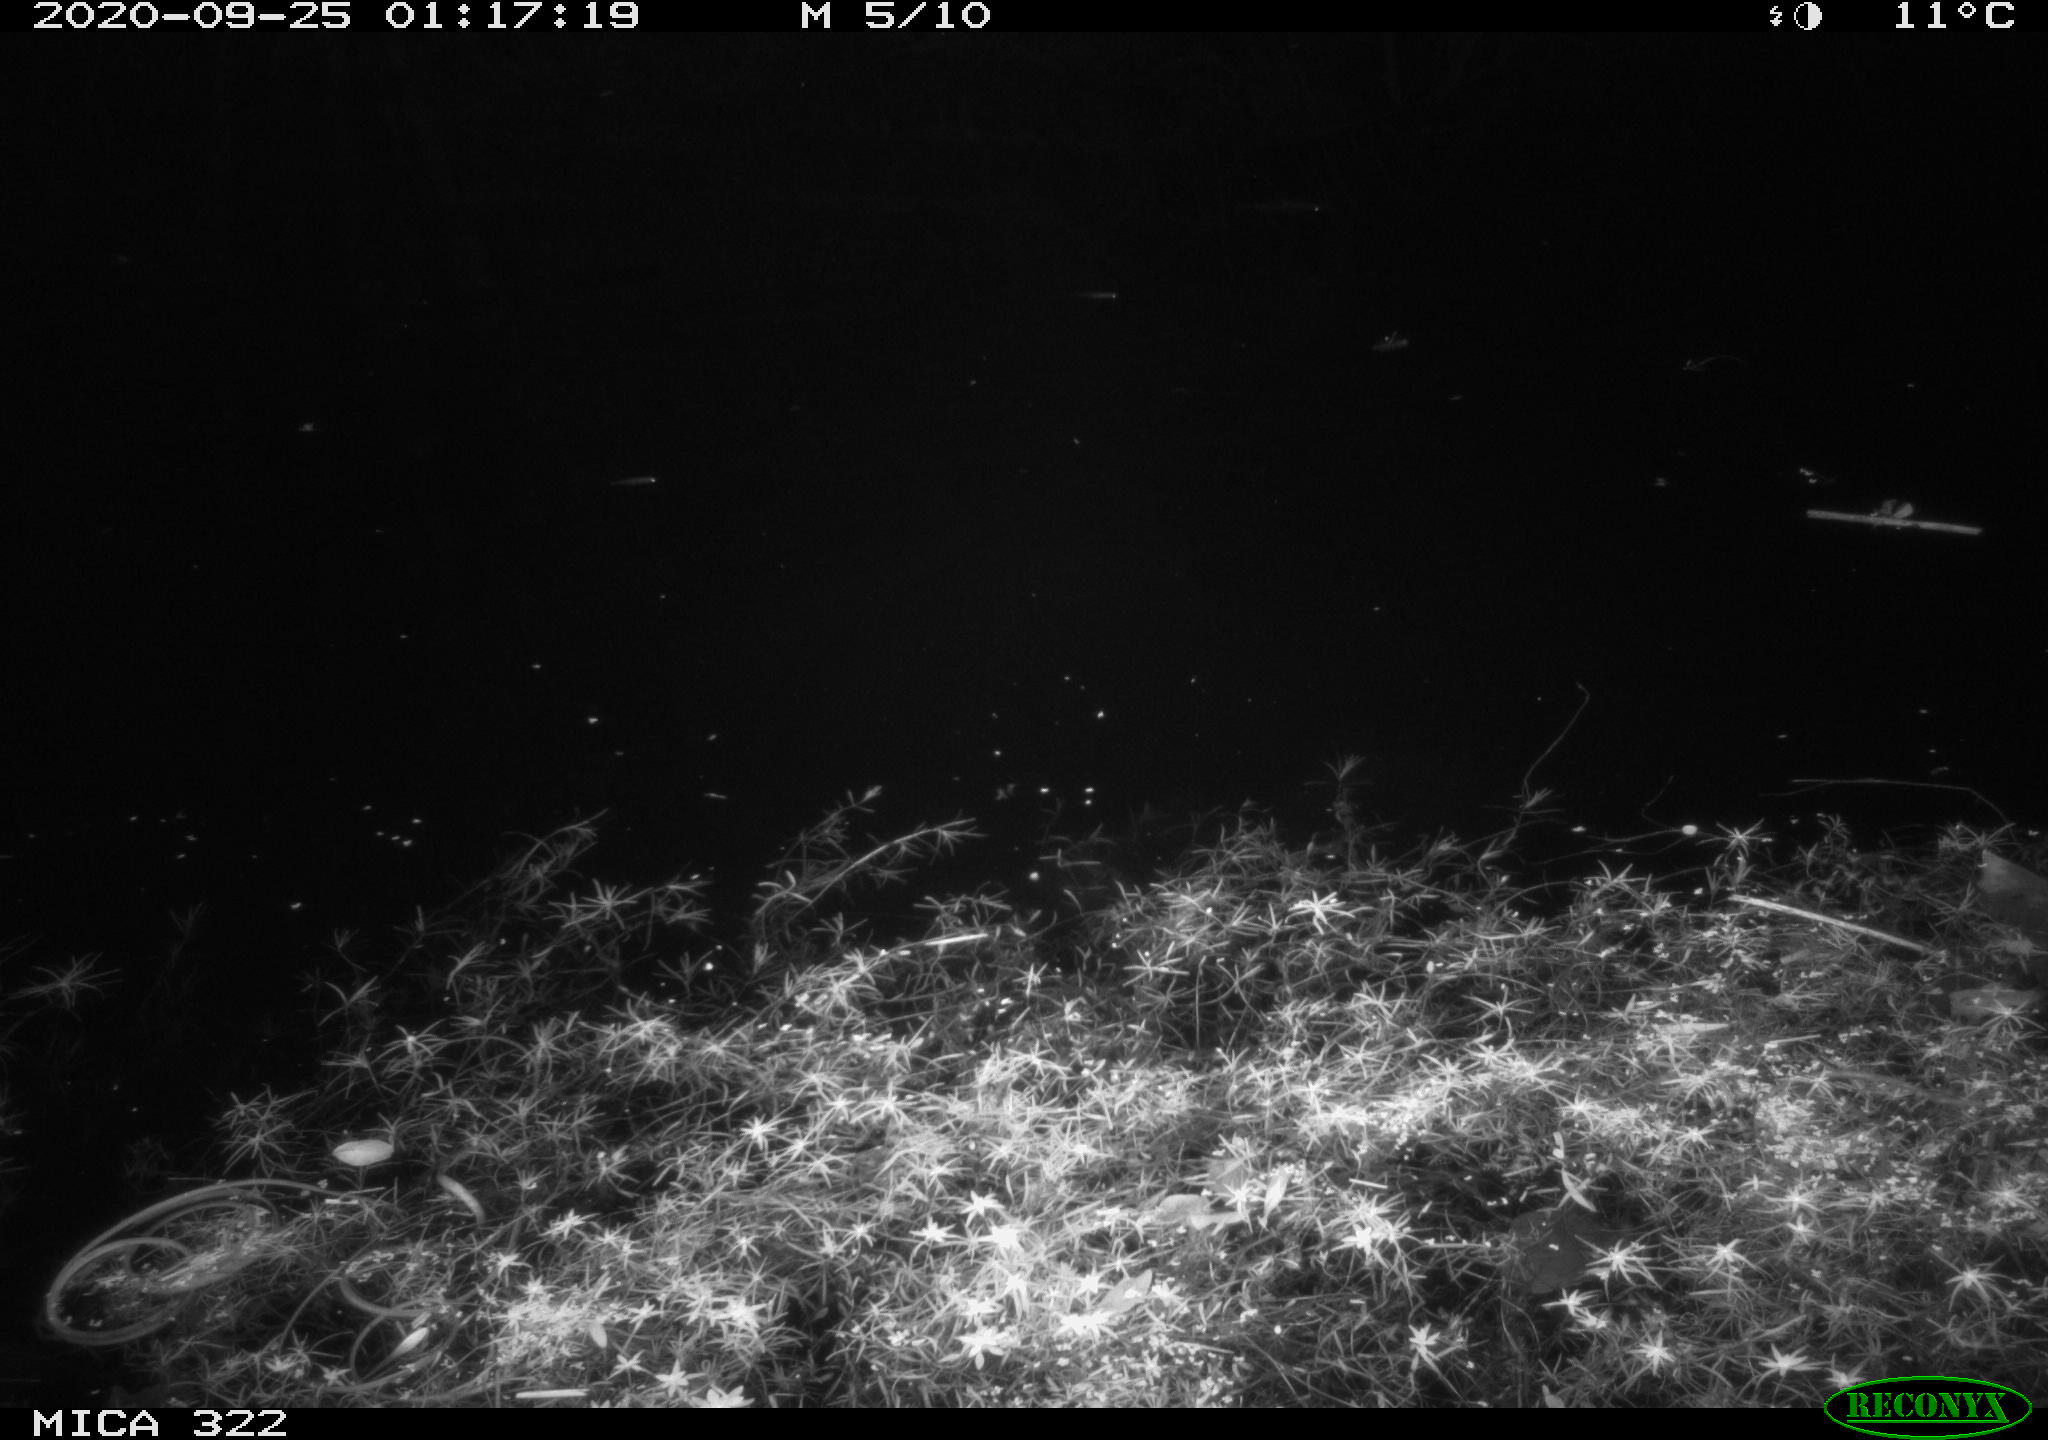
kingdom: Animalia
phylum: Chordata
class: Mammalia
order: Rodentia
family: Muridae
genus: Rattus
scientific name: Rattus norvegicus
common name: Brown rat
